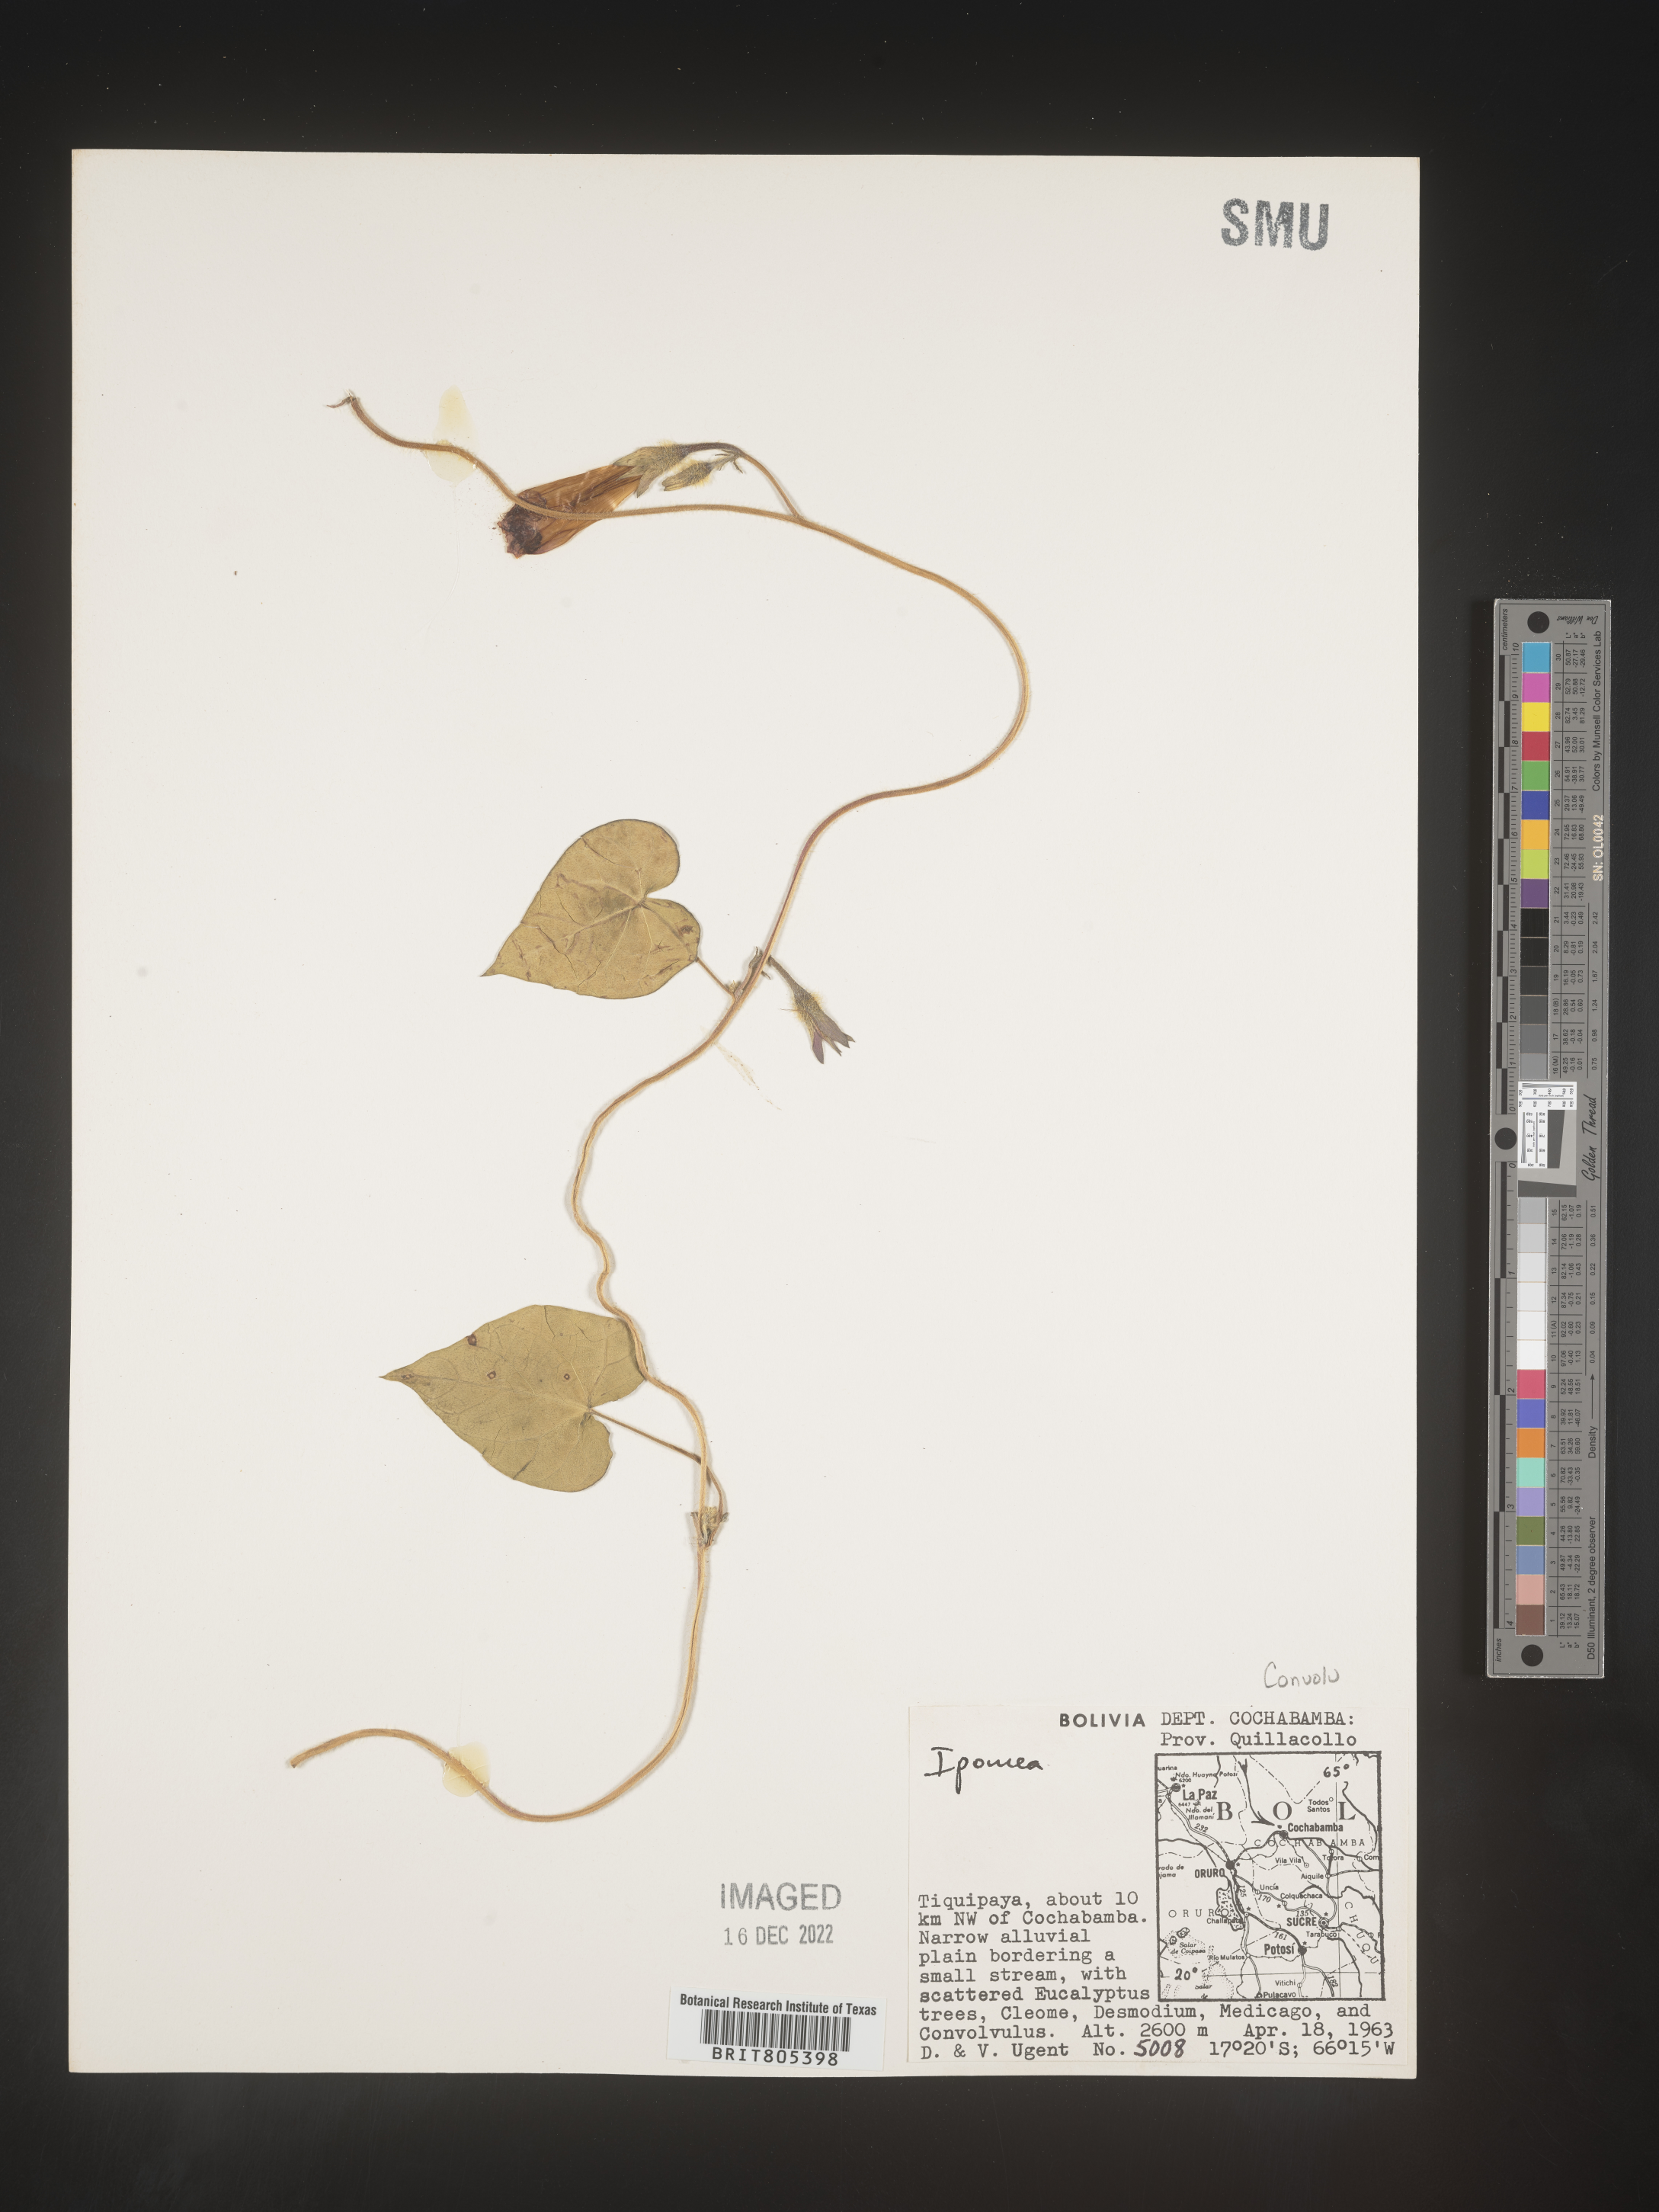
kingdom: Plantae
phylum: Tracheophyta
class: Magnoliopsida
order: Solanales
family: Convolvulaceae
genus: Ipomoea
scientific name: Ipomoea
